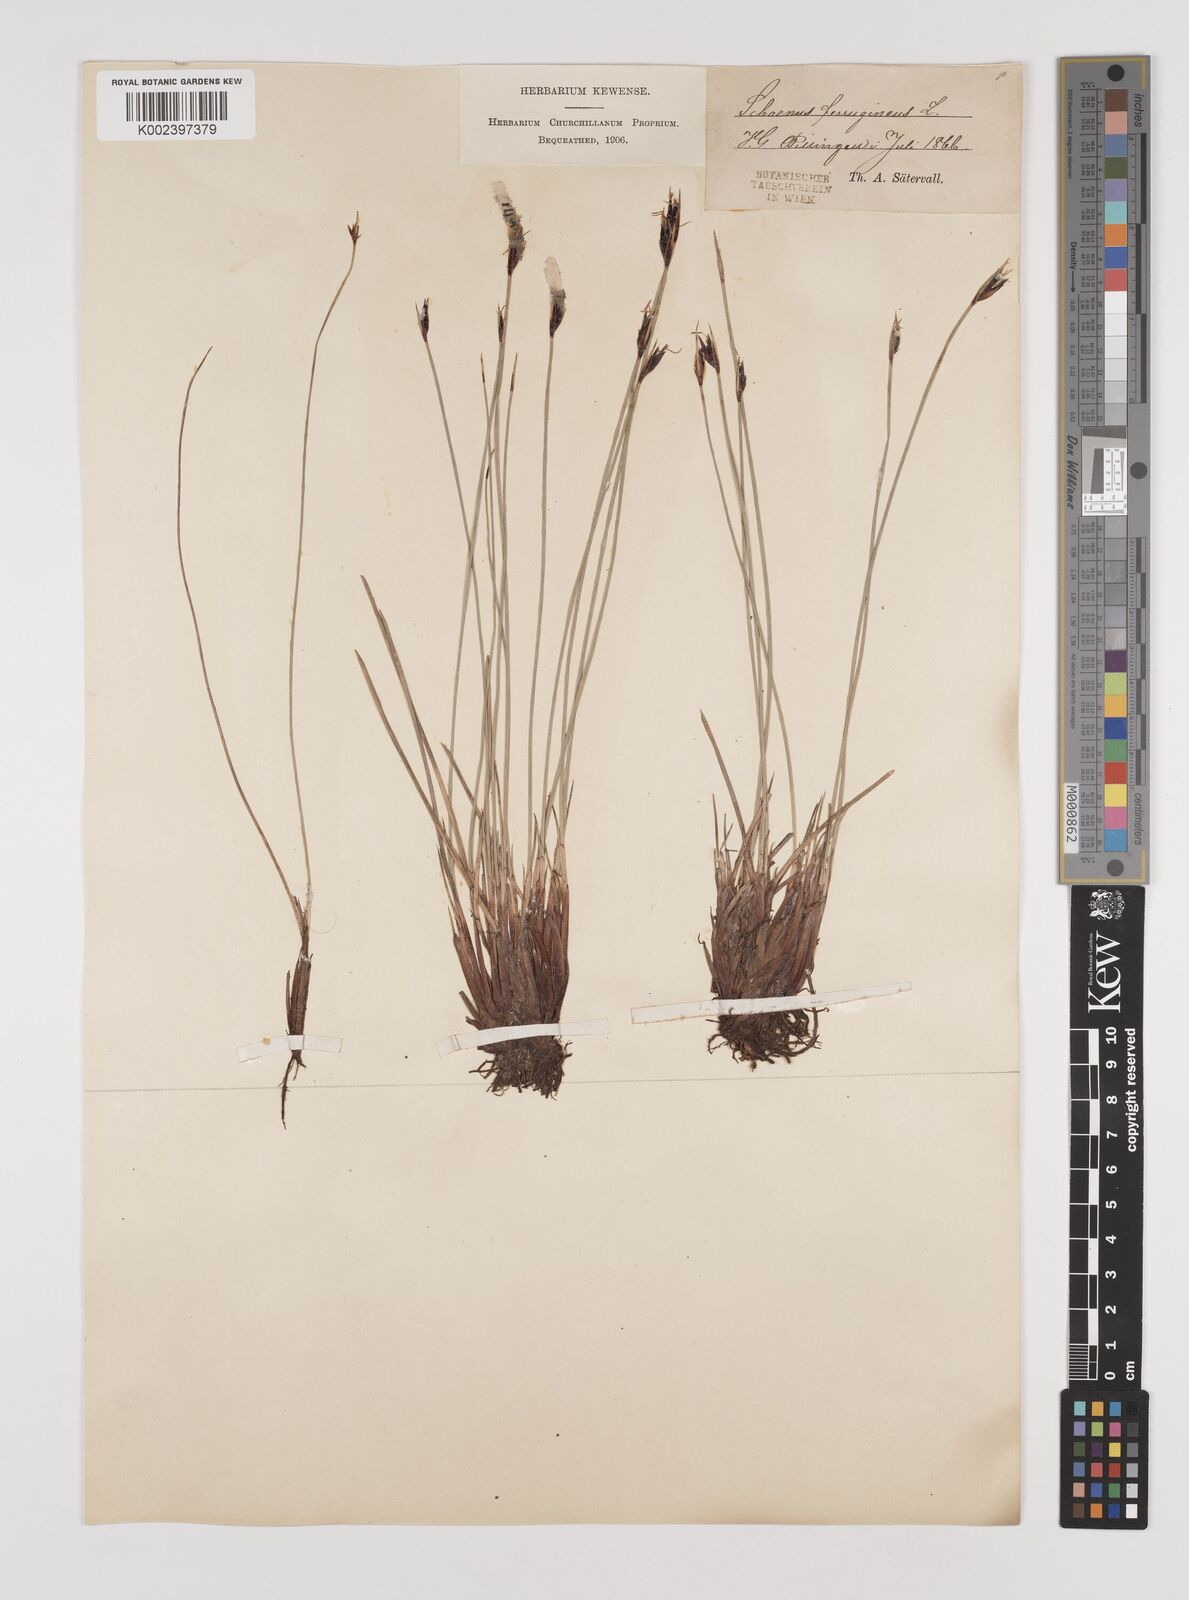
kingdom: Plantae
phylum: Tracheophyta
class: Liliopsida
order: Poales
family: Cyperaceae
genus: Schoenus
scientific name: Schoenus ferrugineus
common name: Brown bog-rush
